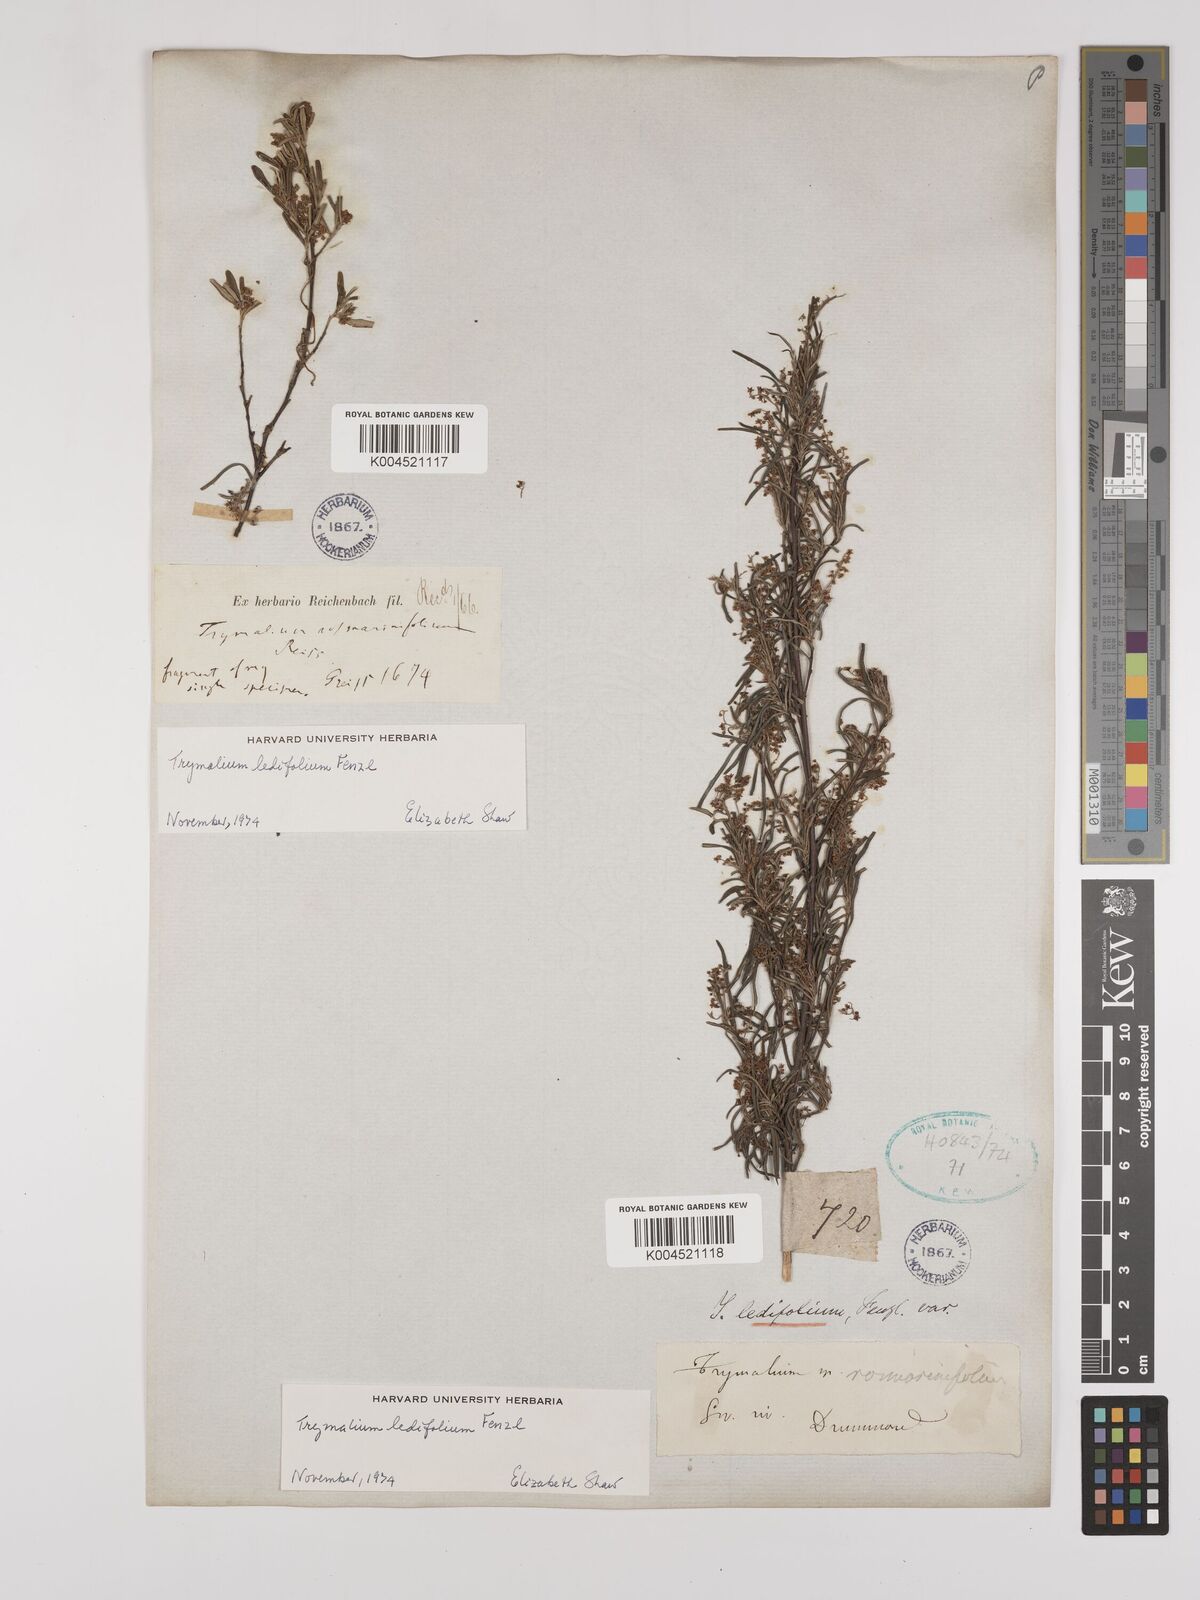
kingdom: Plantae
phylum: Tracheophyta
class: Magnoliopsida
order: Rosales
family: Rhamnaceae
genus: Trymalium
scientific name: Trymalium ledifolium
